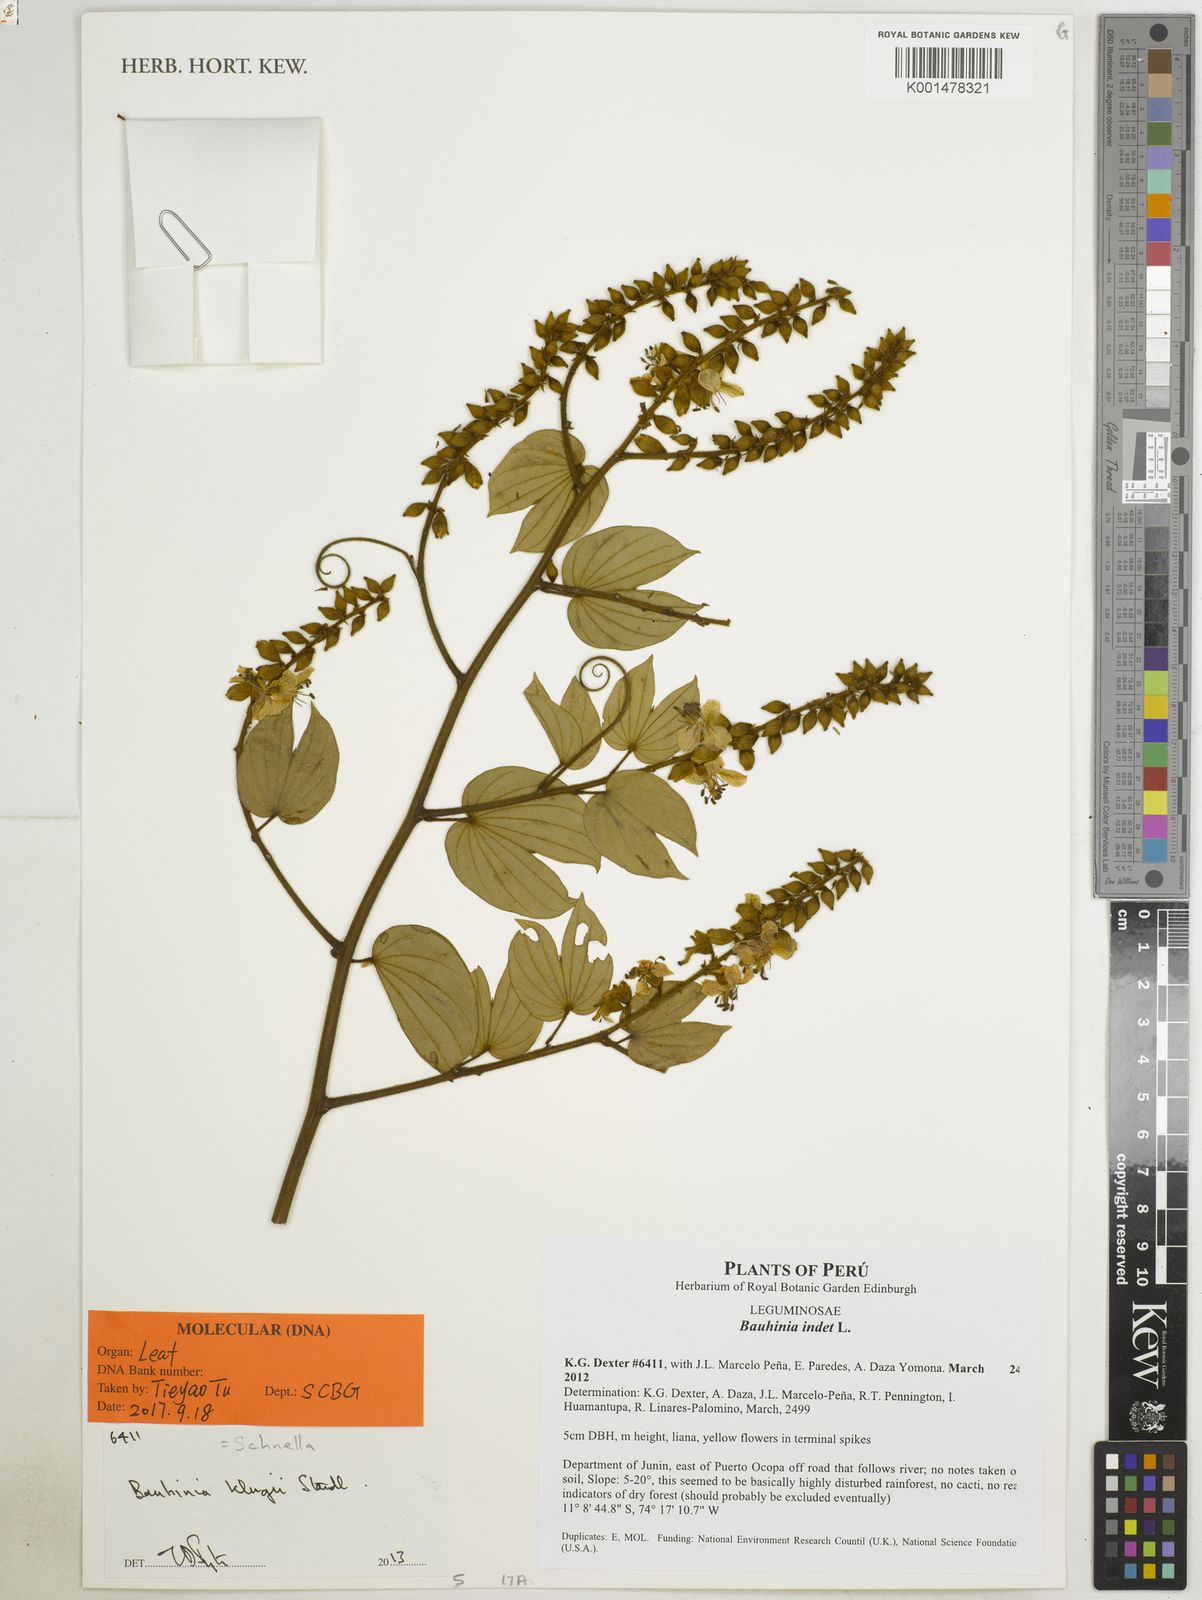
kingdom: Plantae
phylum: Tracheophyta
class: Magnoliopsida
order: Fabales
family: Fabaceae
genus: Schnella
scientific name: Schnella klugii
